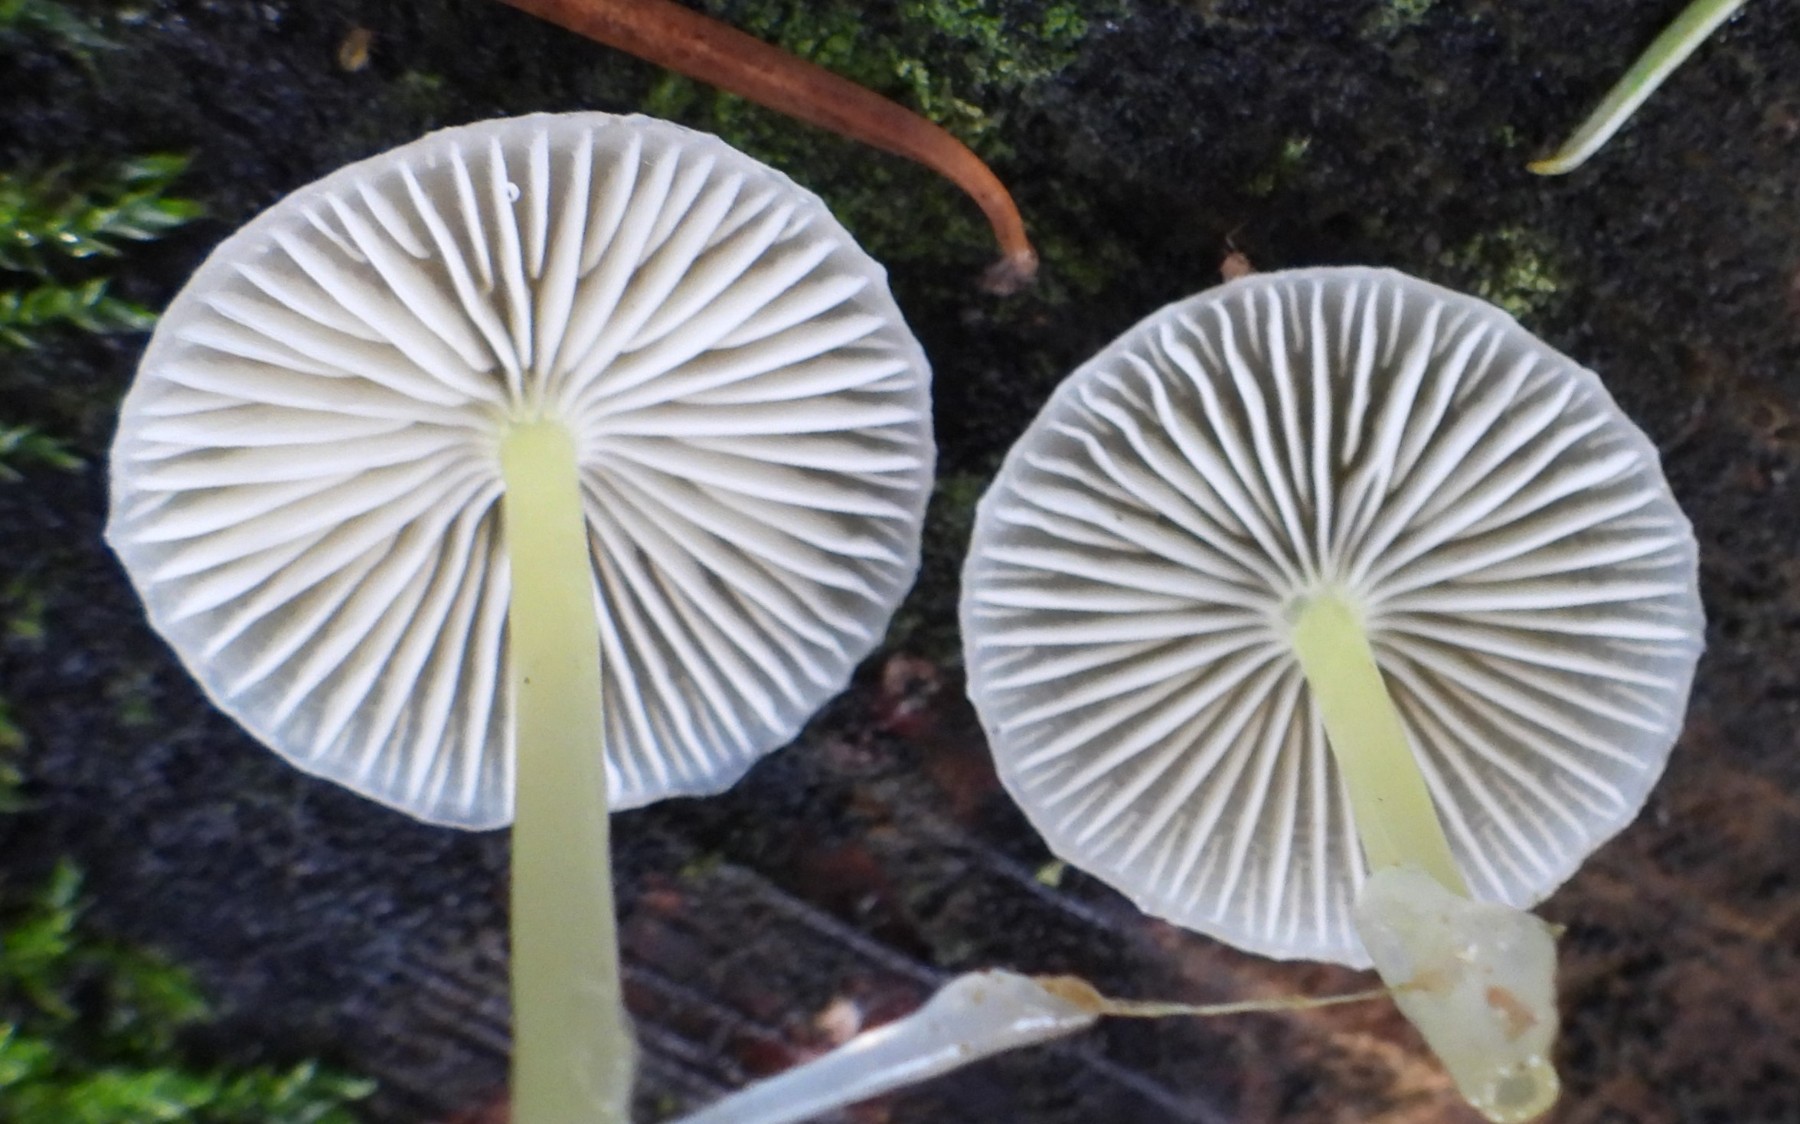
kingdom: Fungi
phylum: Basidiomycota
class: Agaricomycetes
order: Agaricales
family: Mycenaceae
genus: Mycena
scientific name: Mycena epipterygia
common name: gulstokket huesvamp
